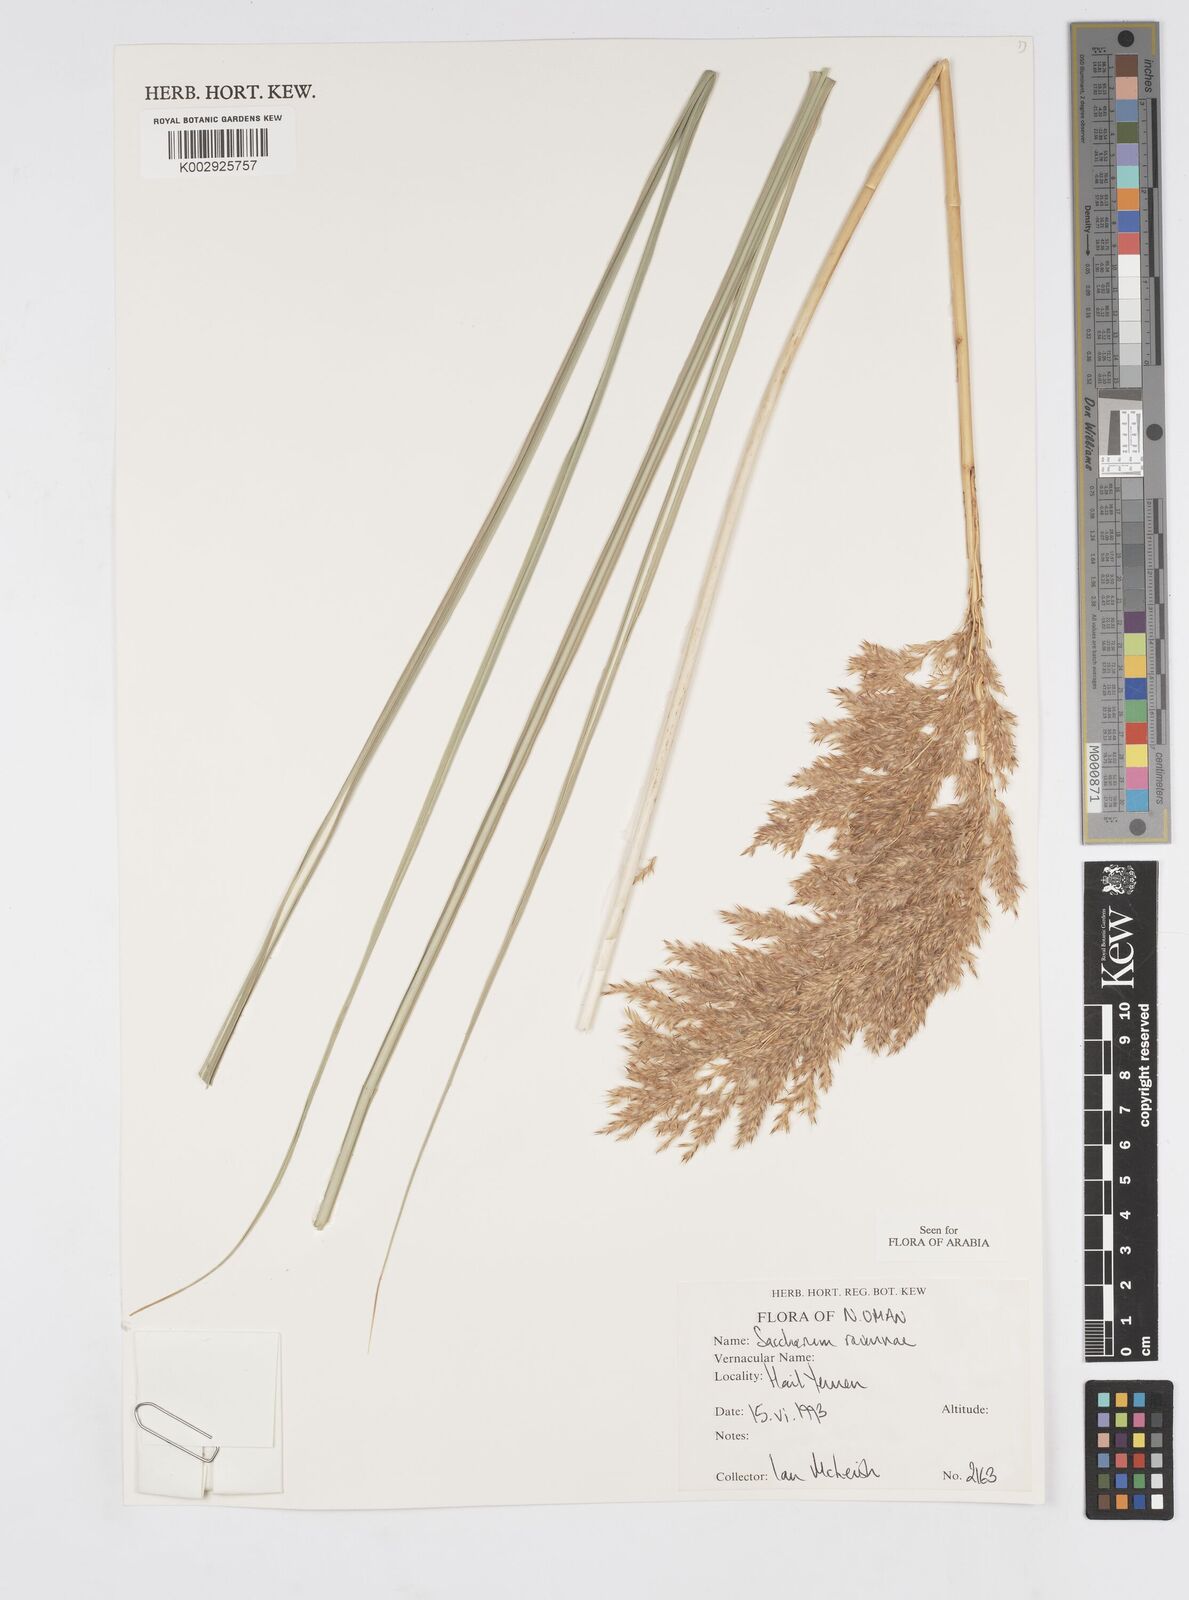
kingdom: Plantae
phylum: Tracheophyta
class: Liliopsida
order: Poales
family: Poaceae
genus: Tripidium
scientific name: Tripidium ravennae
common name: Ravenna grass
